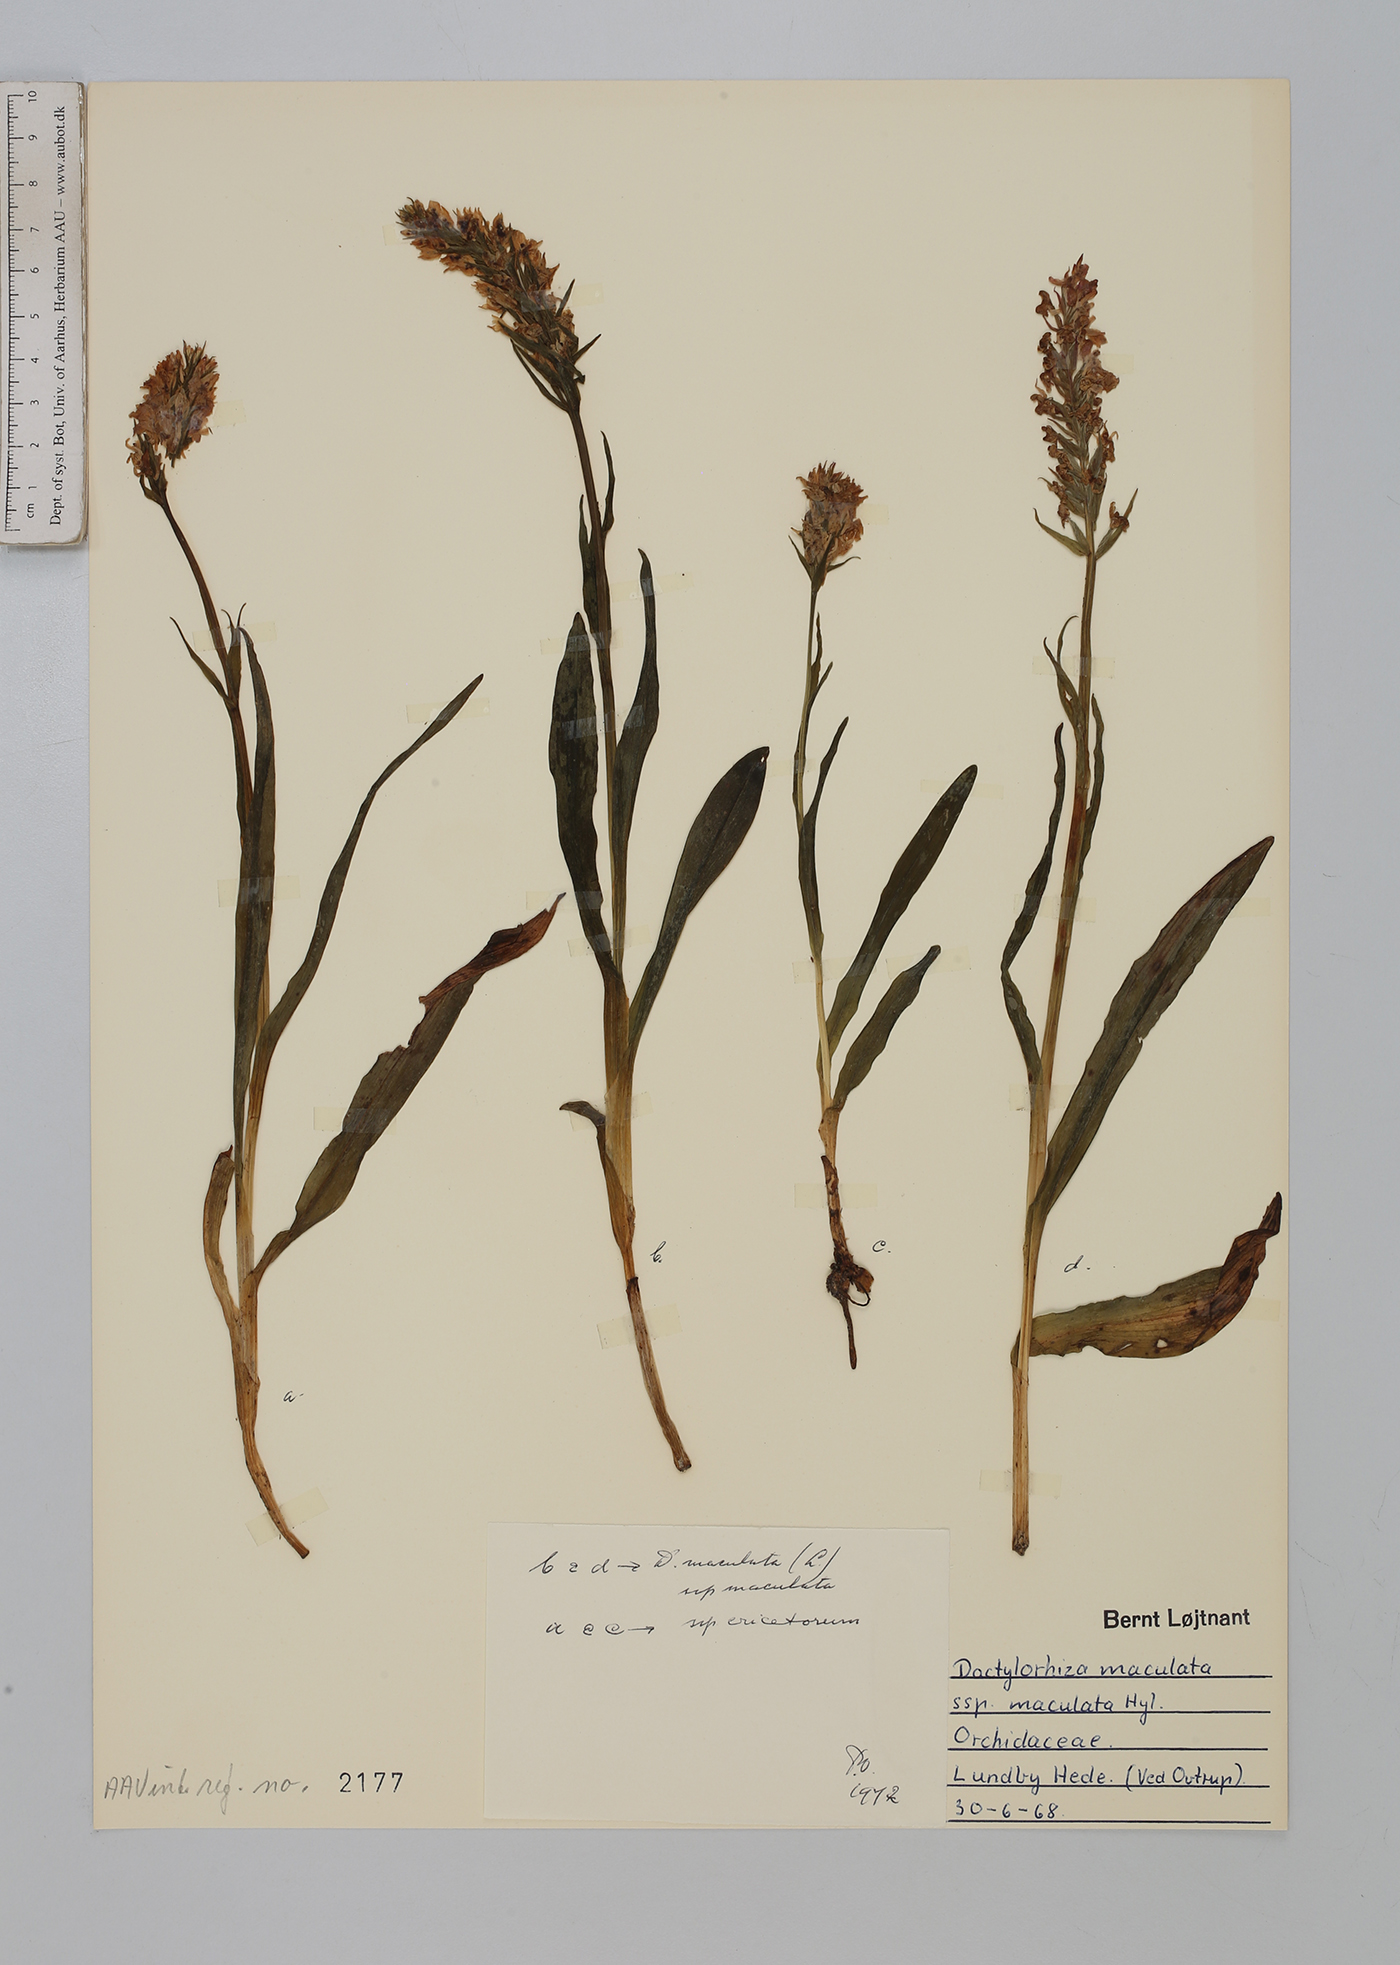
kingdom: Plantae
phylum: Tracheophyta
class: Liliopsida
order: Asparagales
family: Orchidaceae
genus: Dactylorhiza
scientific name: Dactylorhiza maculata
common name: Heath spotted-orchid
